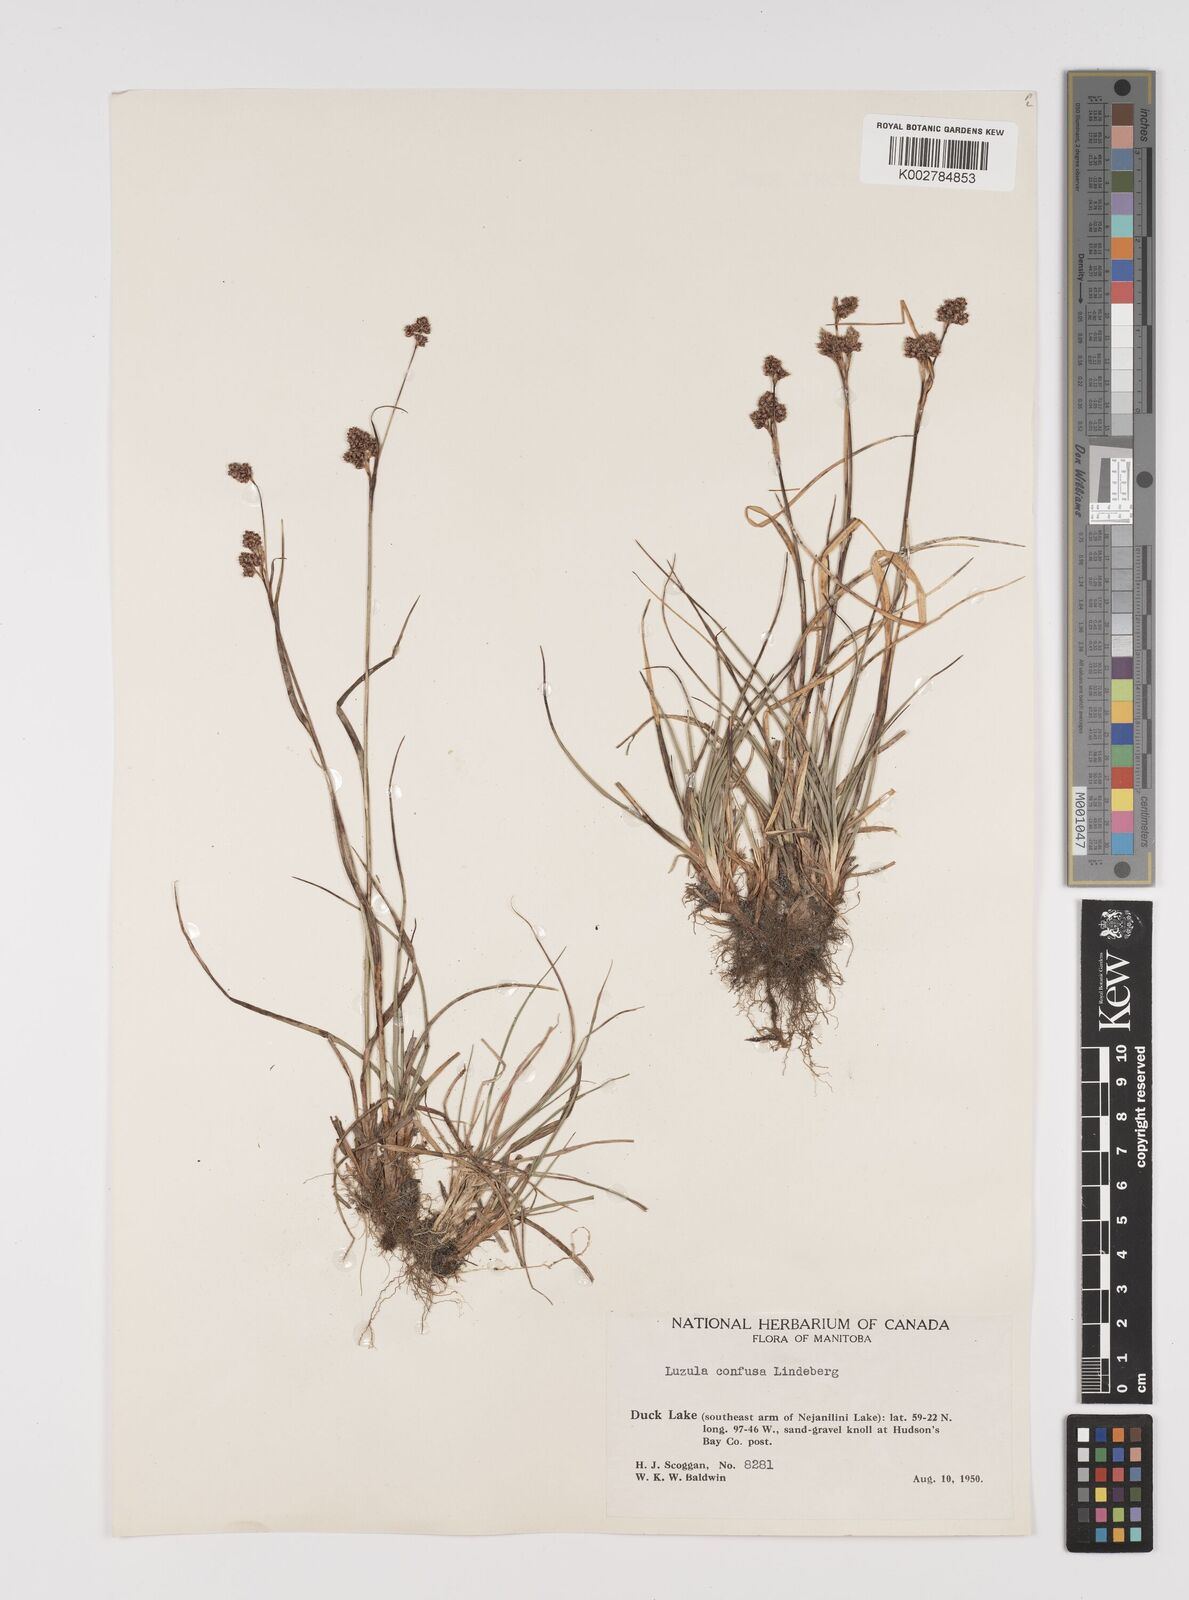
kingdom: Plantae
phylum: Tracheophyta
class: Liliopsida
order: Poales
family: Juncaceae
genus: Luzula
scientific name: Luzula confusa
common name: Northern wood rush
